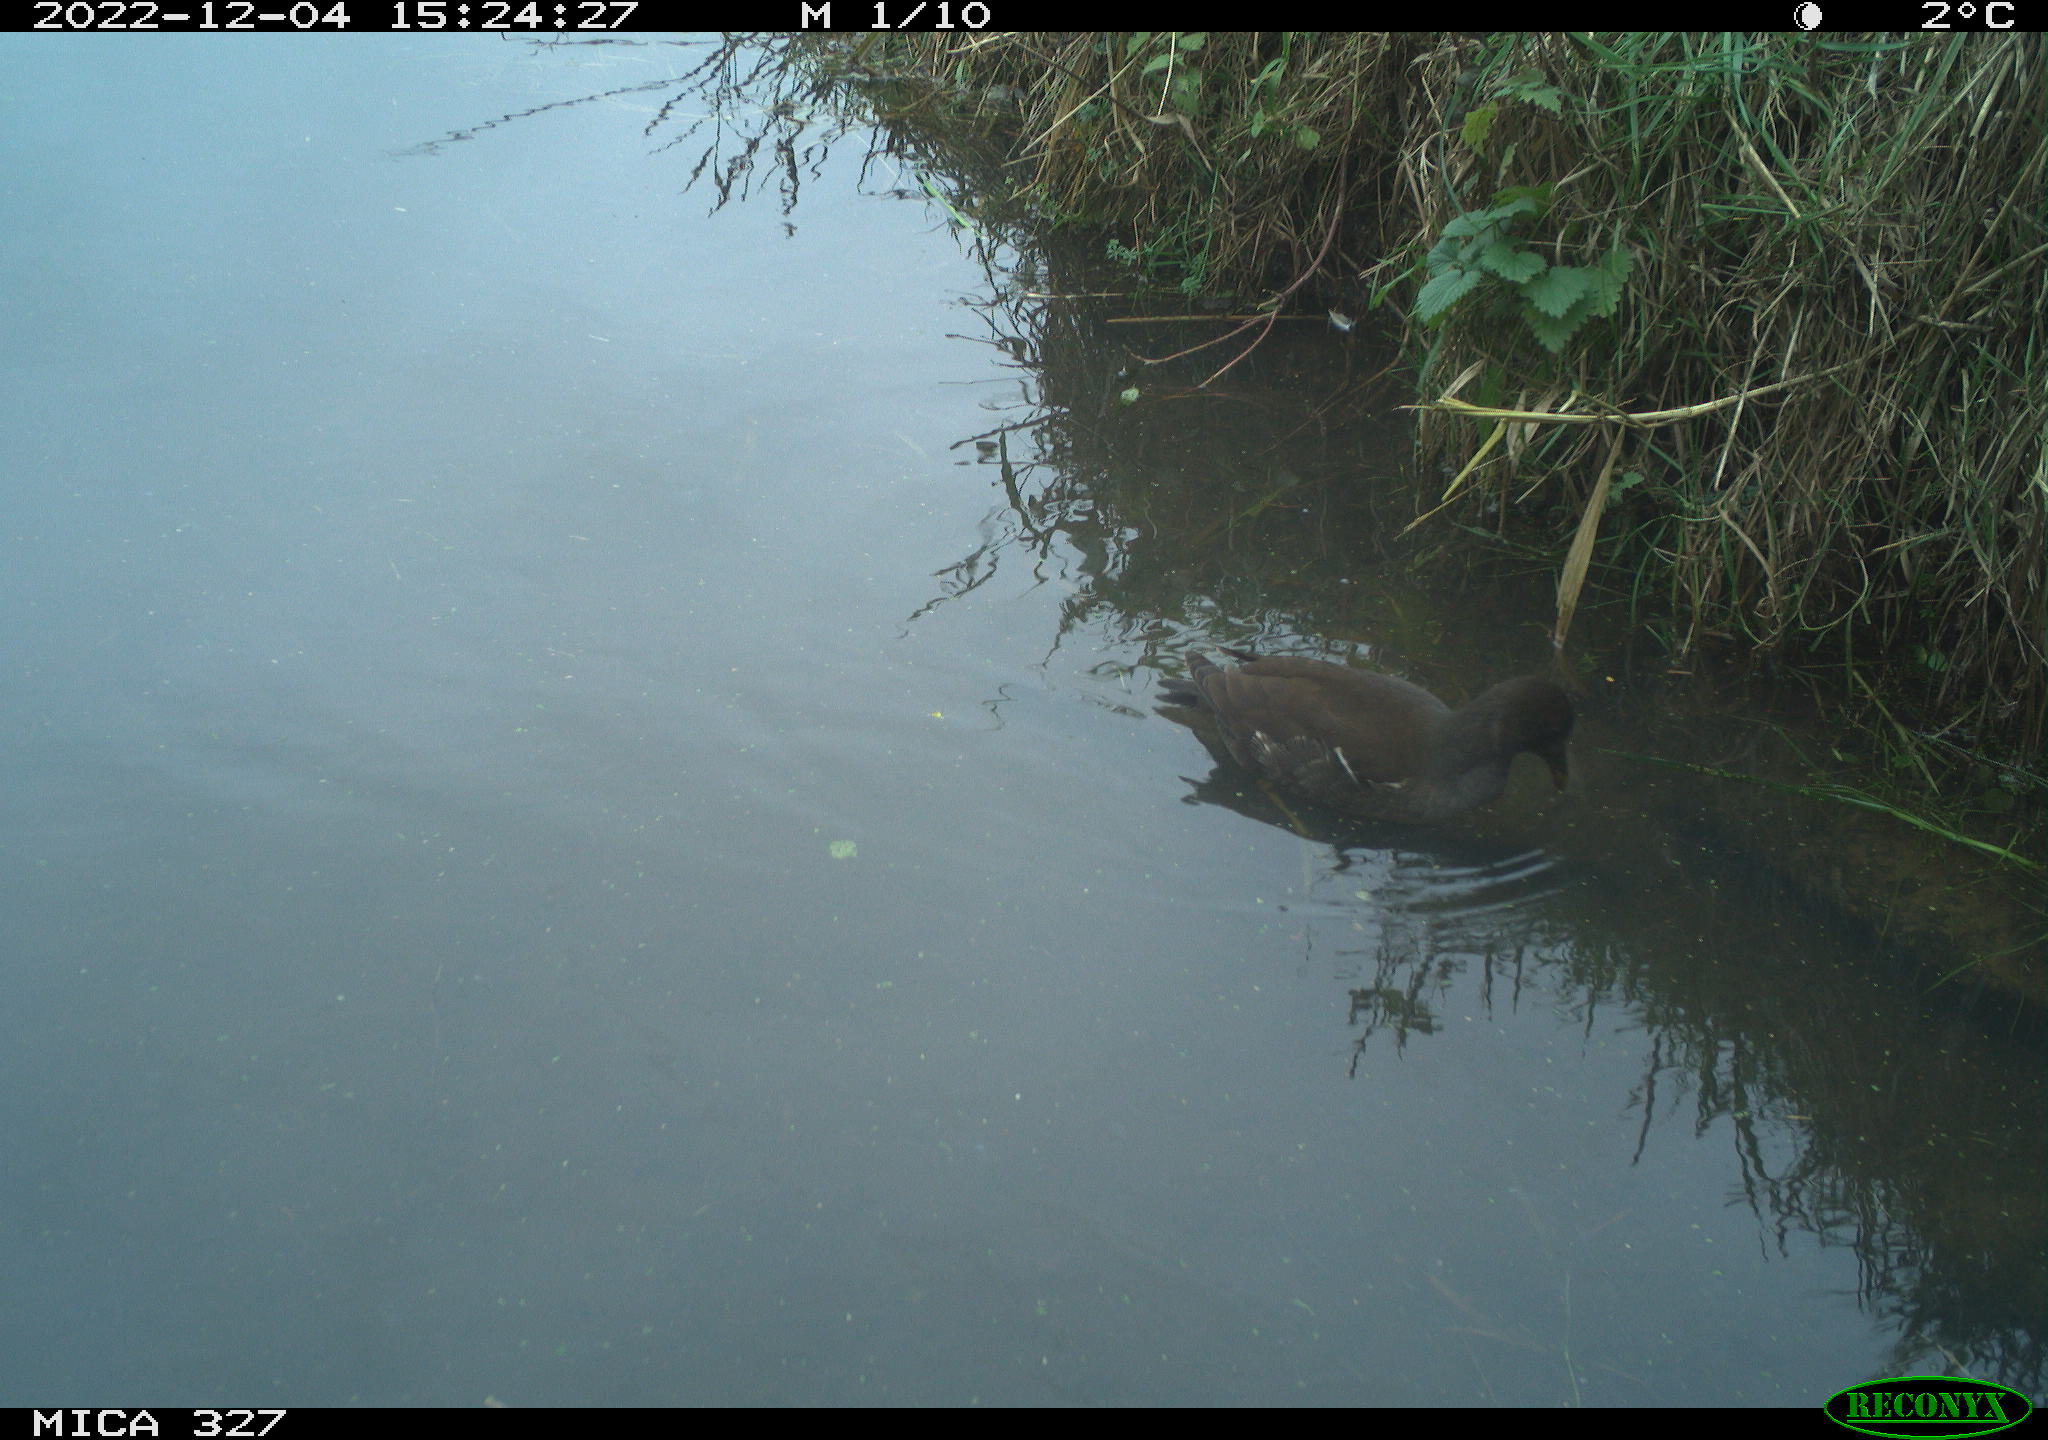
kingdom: Animalia
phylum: Chordata
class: Aves
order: Gruiformes
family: Rallidae
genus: Gallinula
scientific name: Gallinula chloropus
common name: Common moorhen
